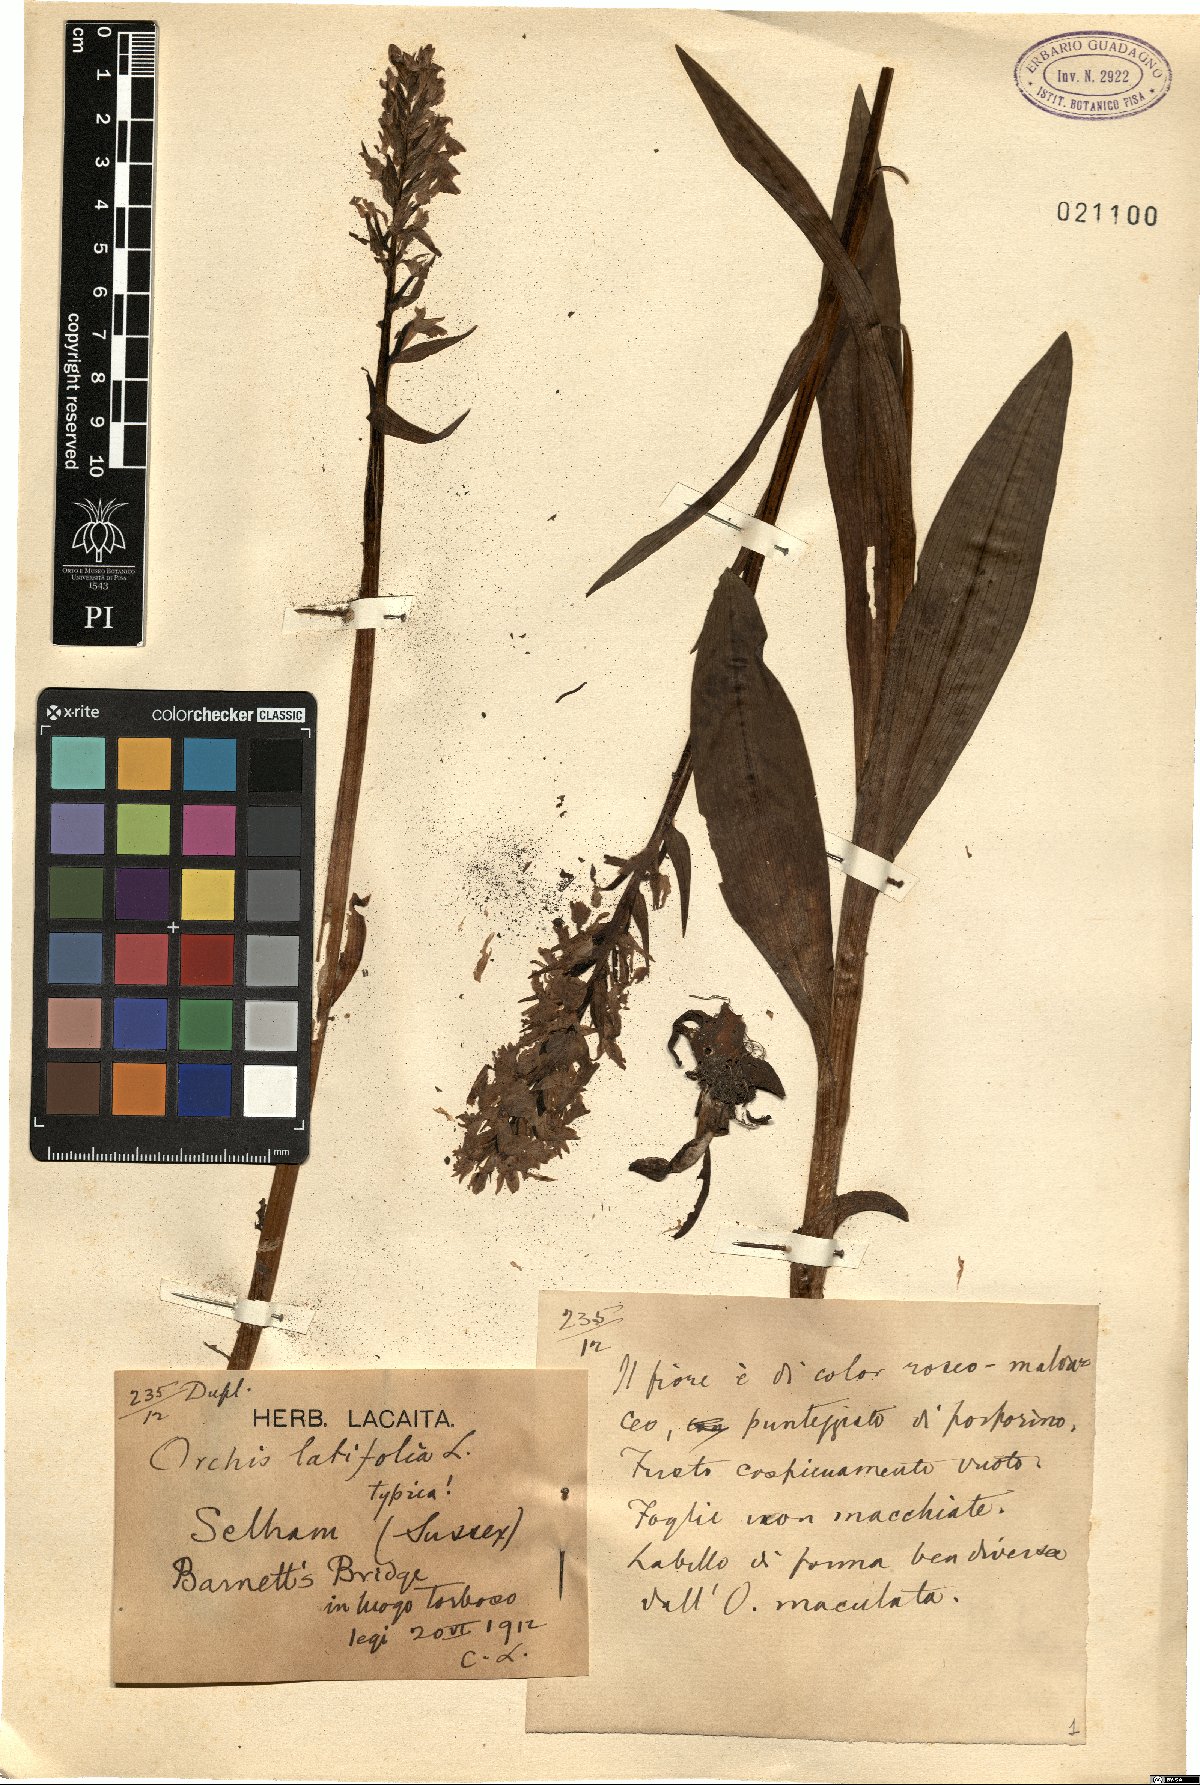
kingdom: Plantae
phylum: Tracheophyta
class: Liliopsida
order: Asparagales
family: Orchidaceae
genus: Dactylorhiza
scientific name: Dactylorhiza incarnata
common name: Early marsh-orchid
